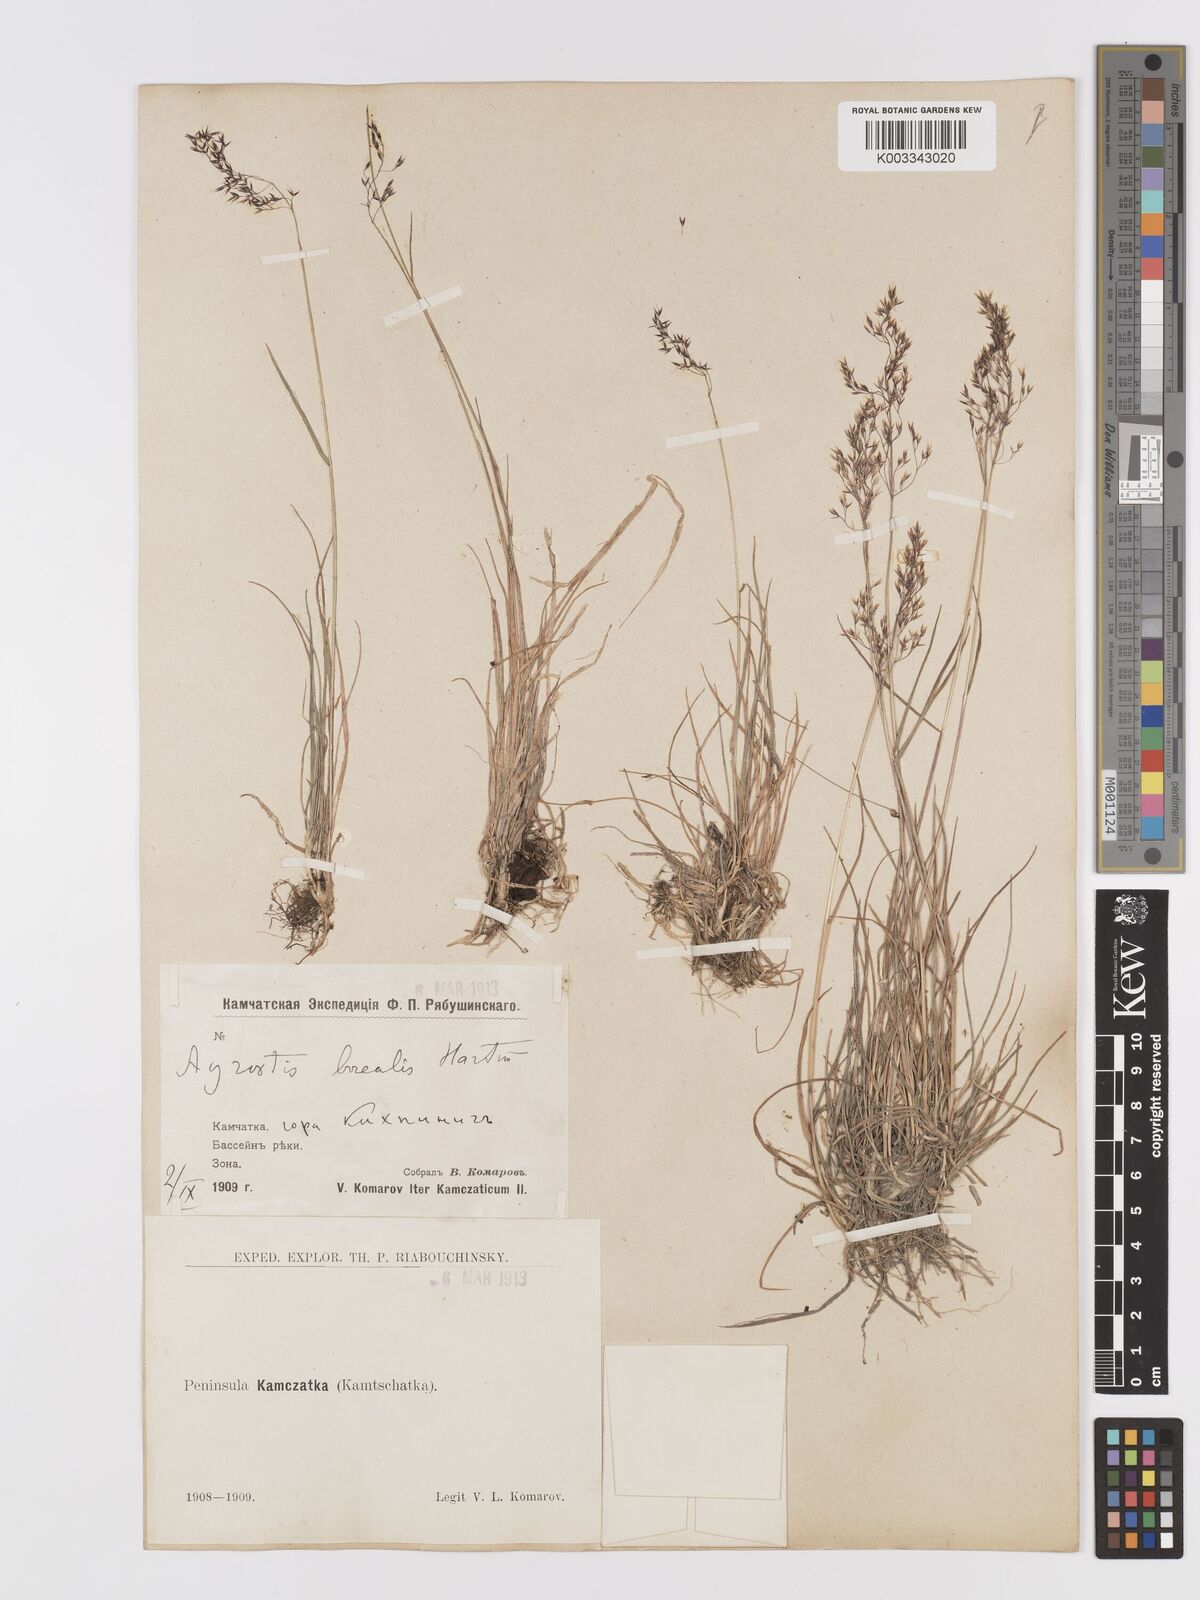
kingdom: Plantae
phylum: Tracheophyta
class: Liliopsida
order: Poales
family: Poaceae
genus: Agrostis
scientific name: Agrostis mertensii
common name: Northern bent
